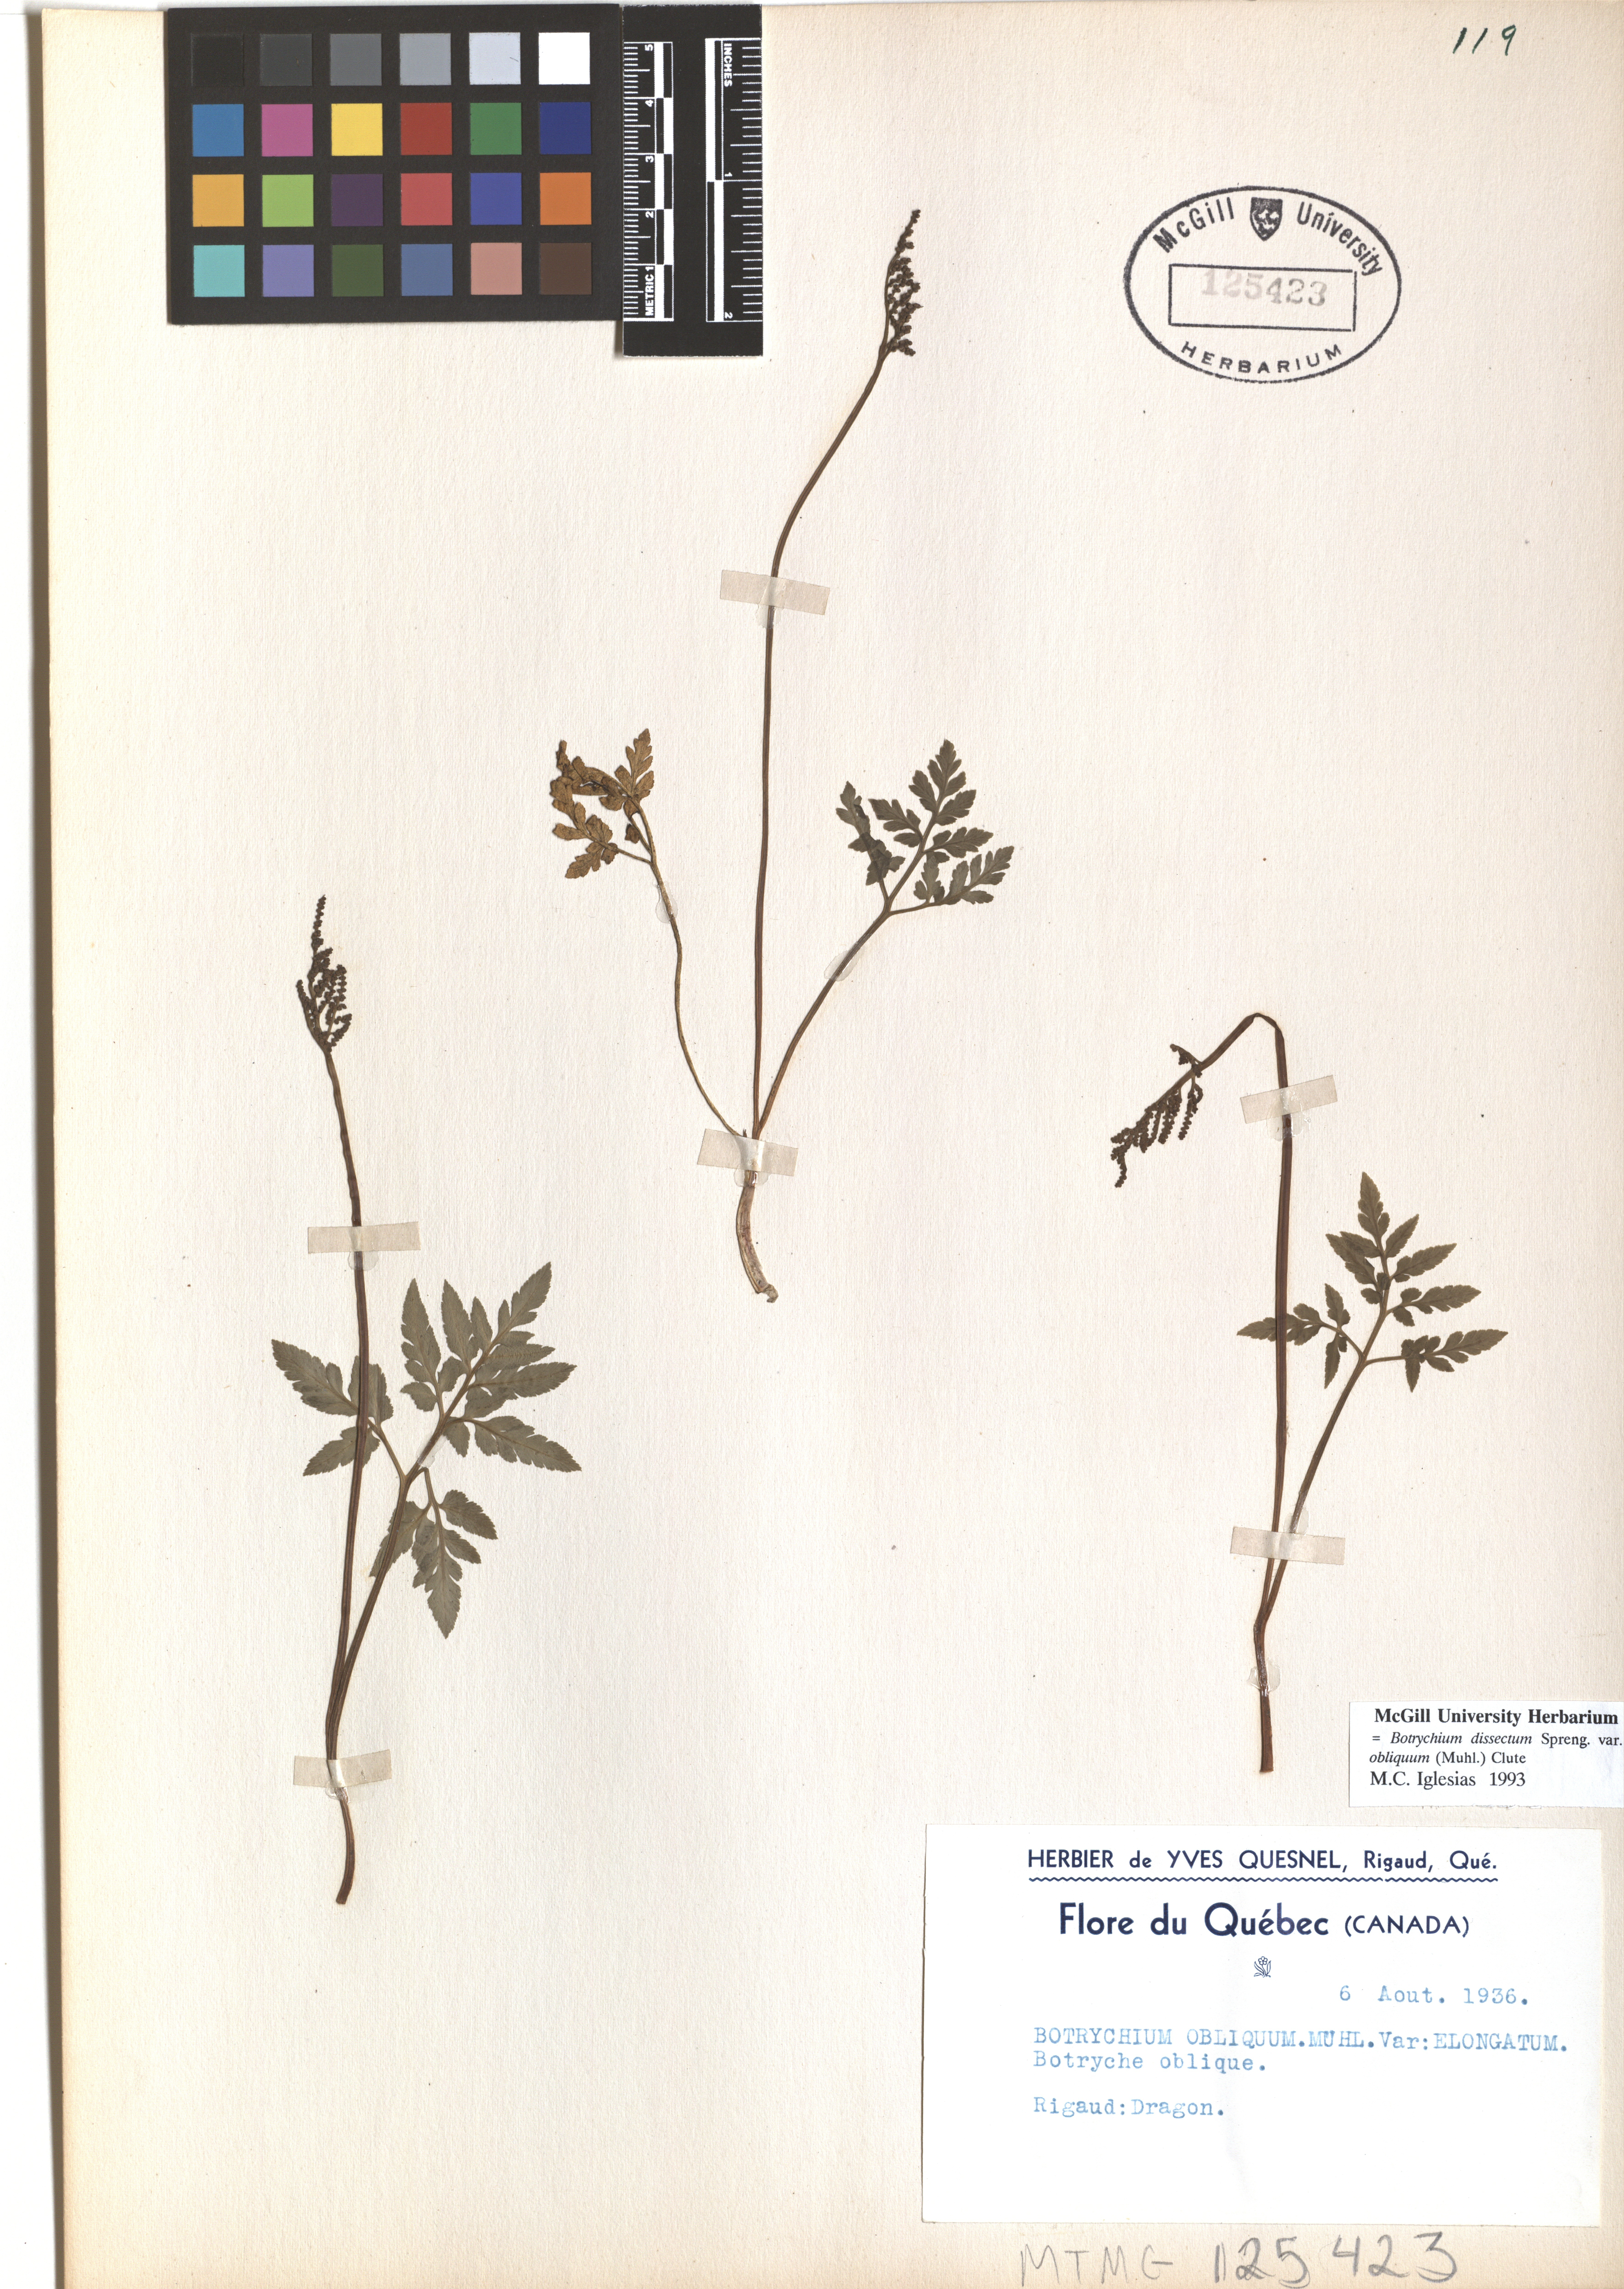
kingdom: Plantae
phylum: Tracheophyta
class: Polypodiopsida
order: Ophioglossales
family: Ophioglossaceae
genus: Sceptridium
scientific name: Sceptridium dissectum
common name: Cut-leaved grapefern
